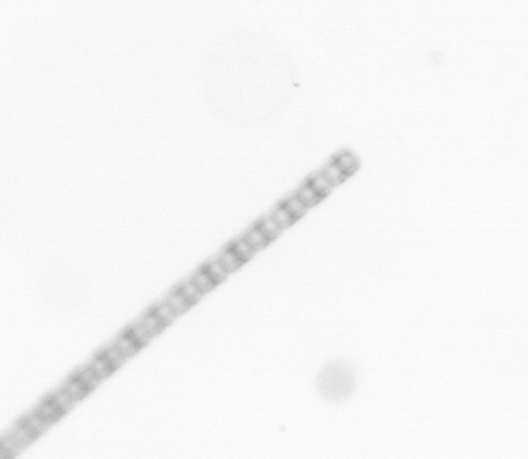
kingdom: Chromista
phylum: Ochrophyta
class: Bacillariophyceae
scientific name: Bacillariophyceae
